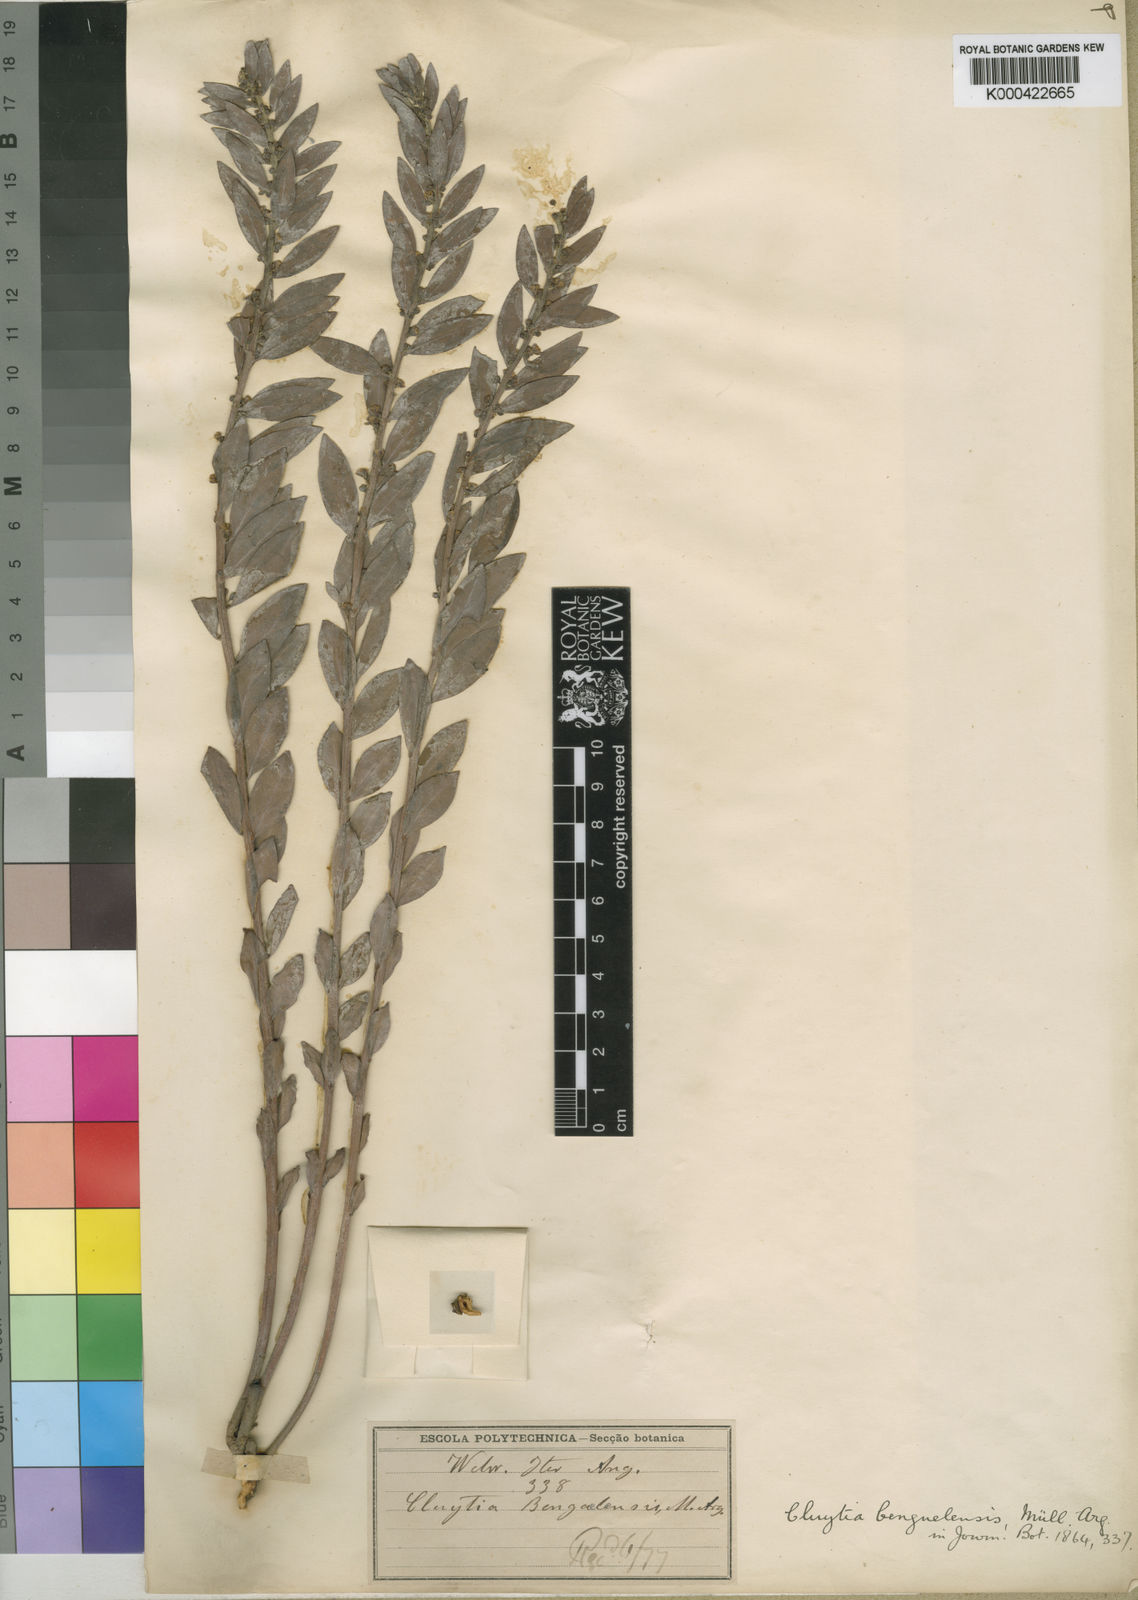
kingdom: Plantae
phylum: Tracheophyta
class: Magnoliopsida
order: Malpighiales
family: Peraceae
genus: Clutia
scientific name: Clutia
